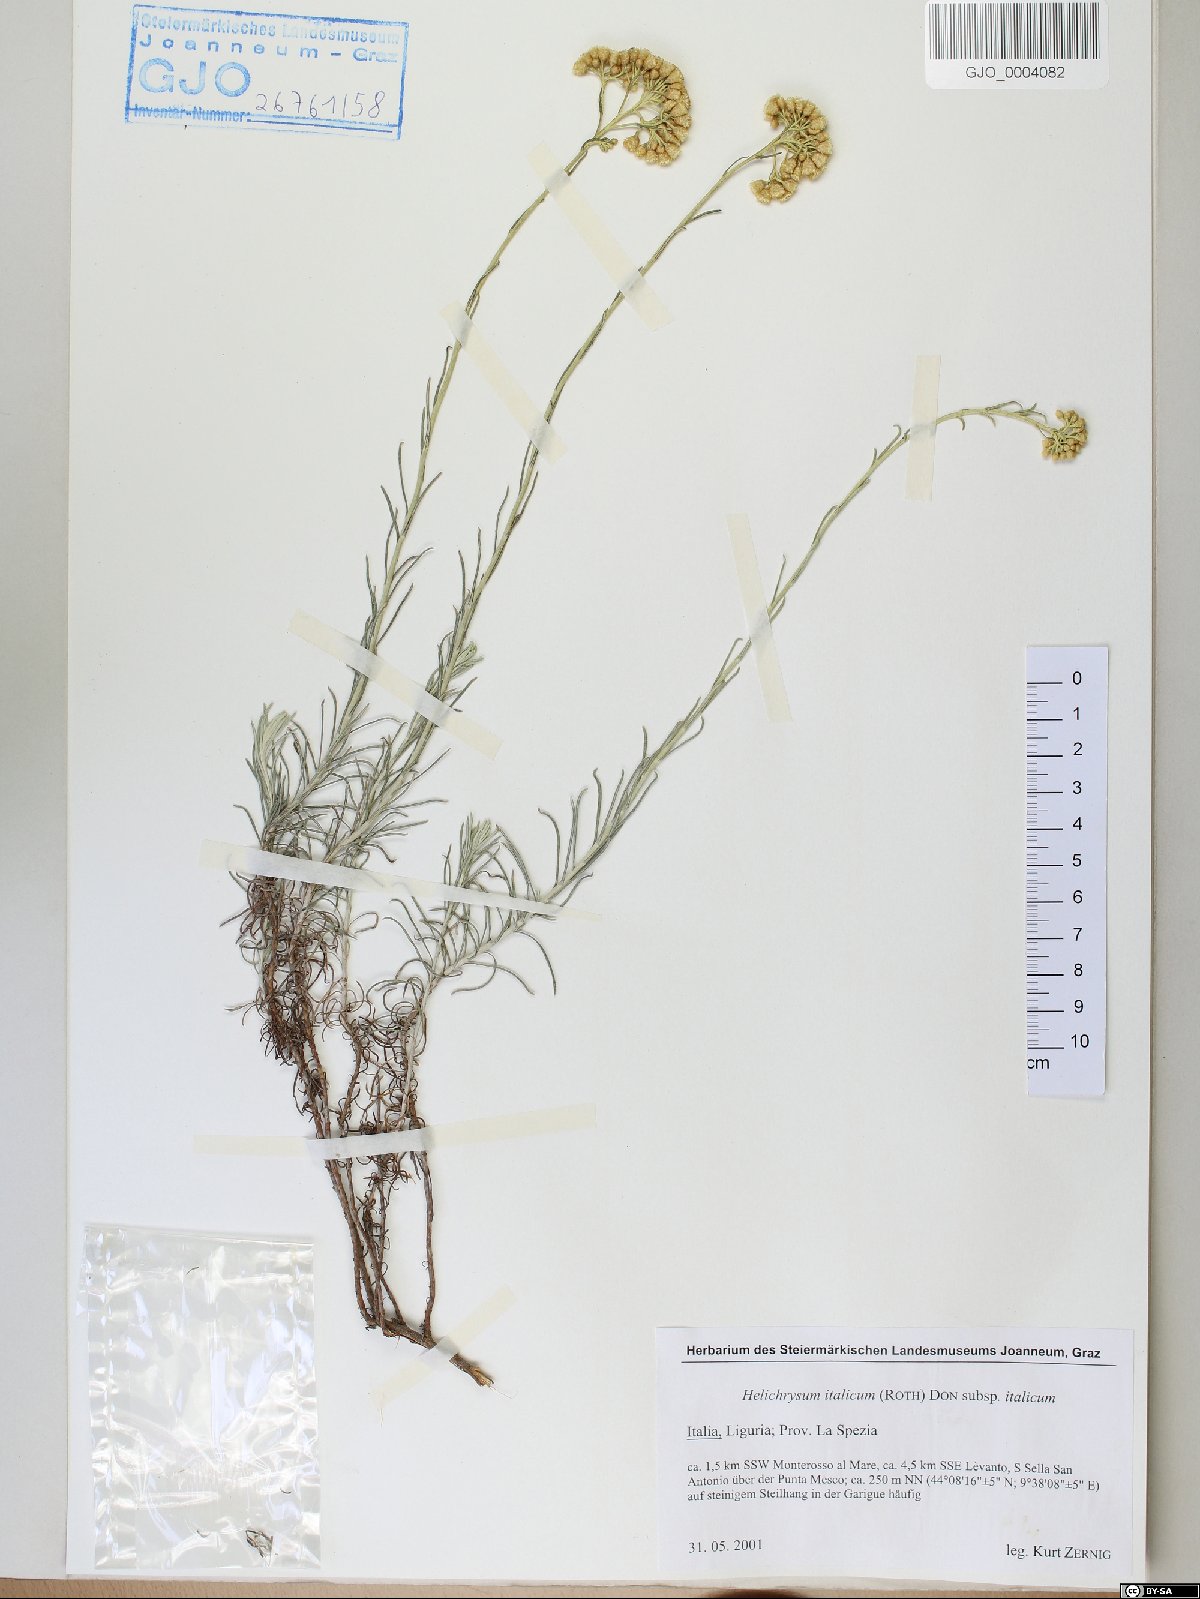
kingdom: Plantae
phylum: Tracheophyta
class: Magnoliopsida
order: Asterales
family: Asteraceae
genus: Helichrysum
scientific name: Helichrysum italicum
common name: Curryplant
